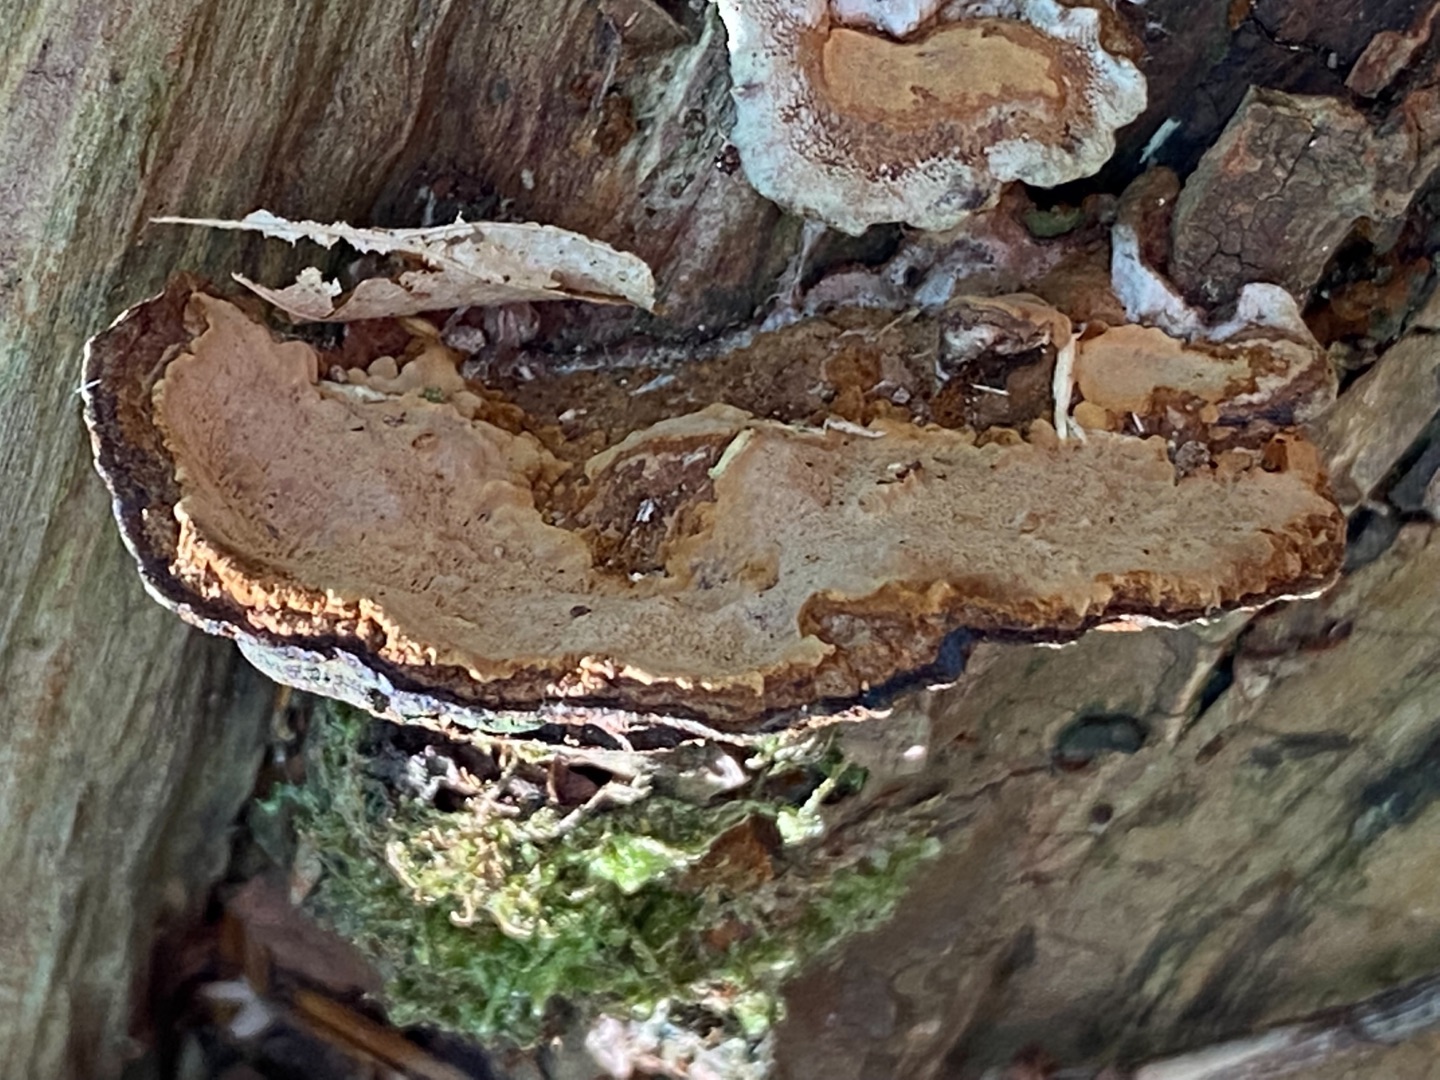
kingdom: Fungi
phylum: Basidiomycota
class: Agaricomycetes
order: Hymenochaetales
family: Hymenochaetaceae
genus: Phellinopsis
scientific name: Phellinopsis conchata
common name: Pile-ildporesvamp
